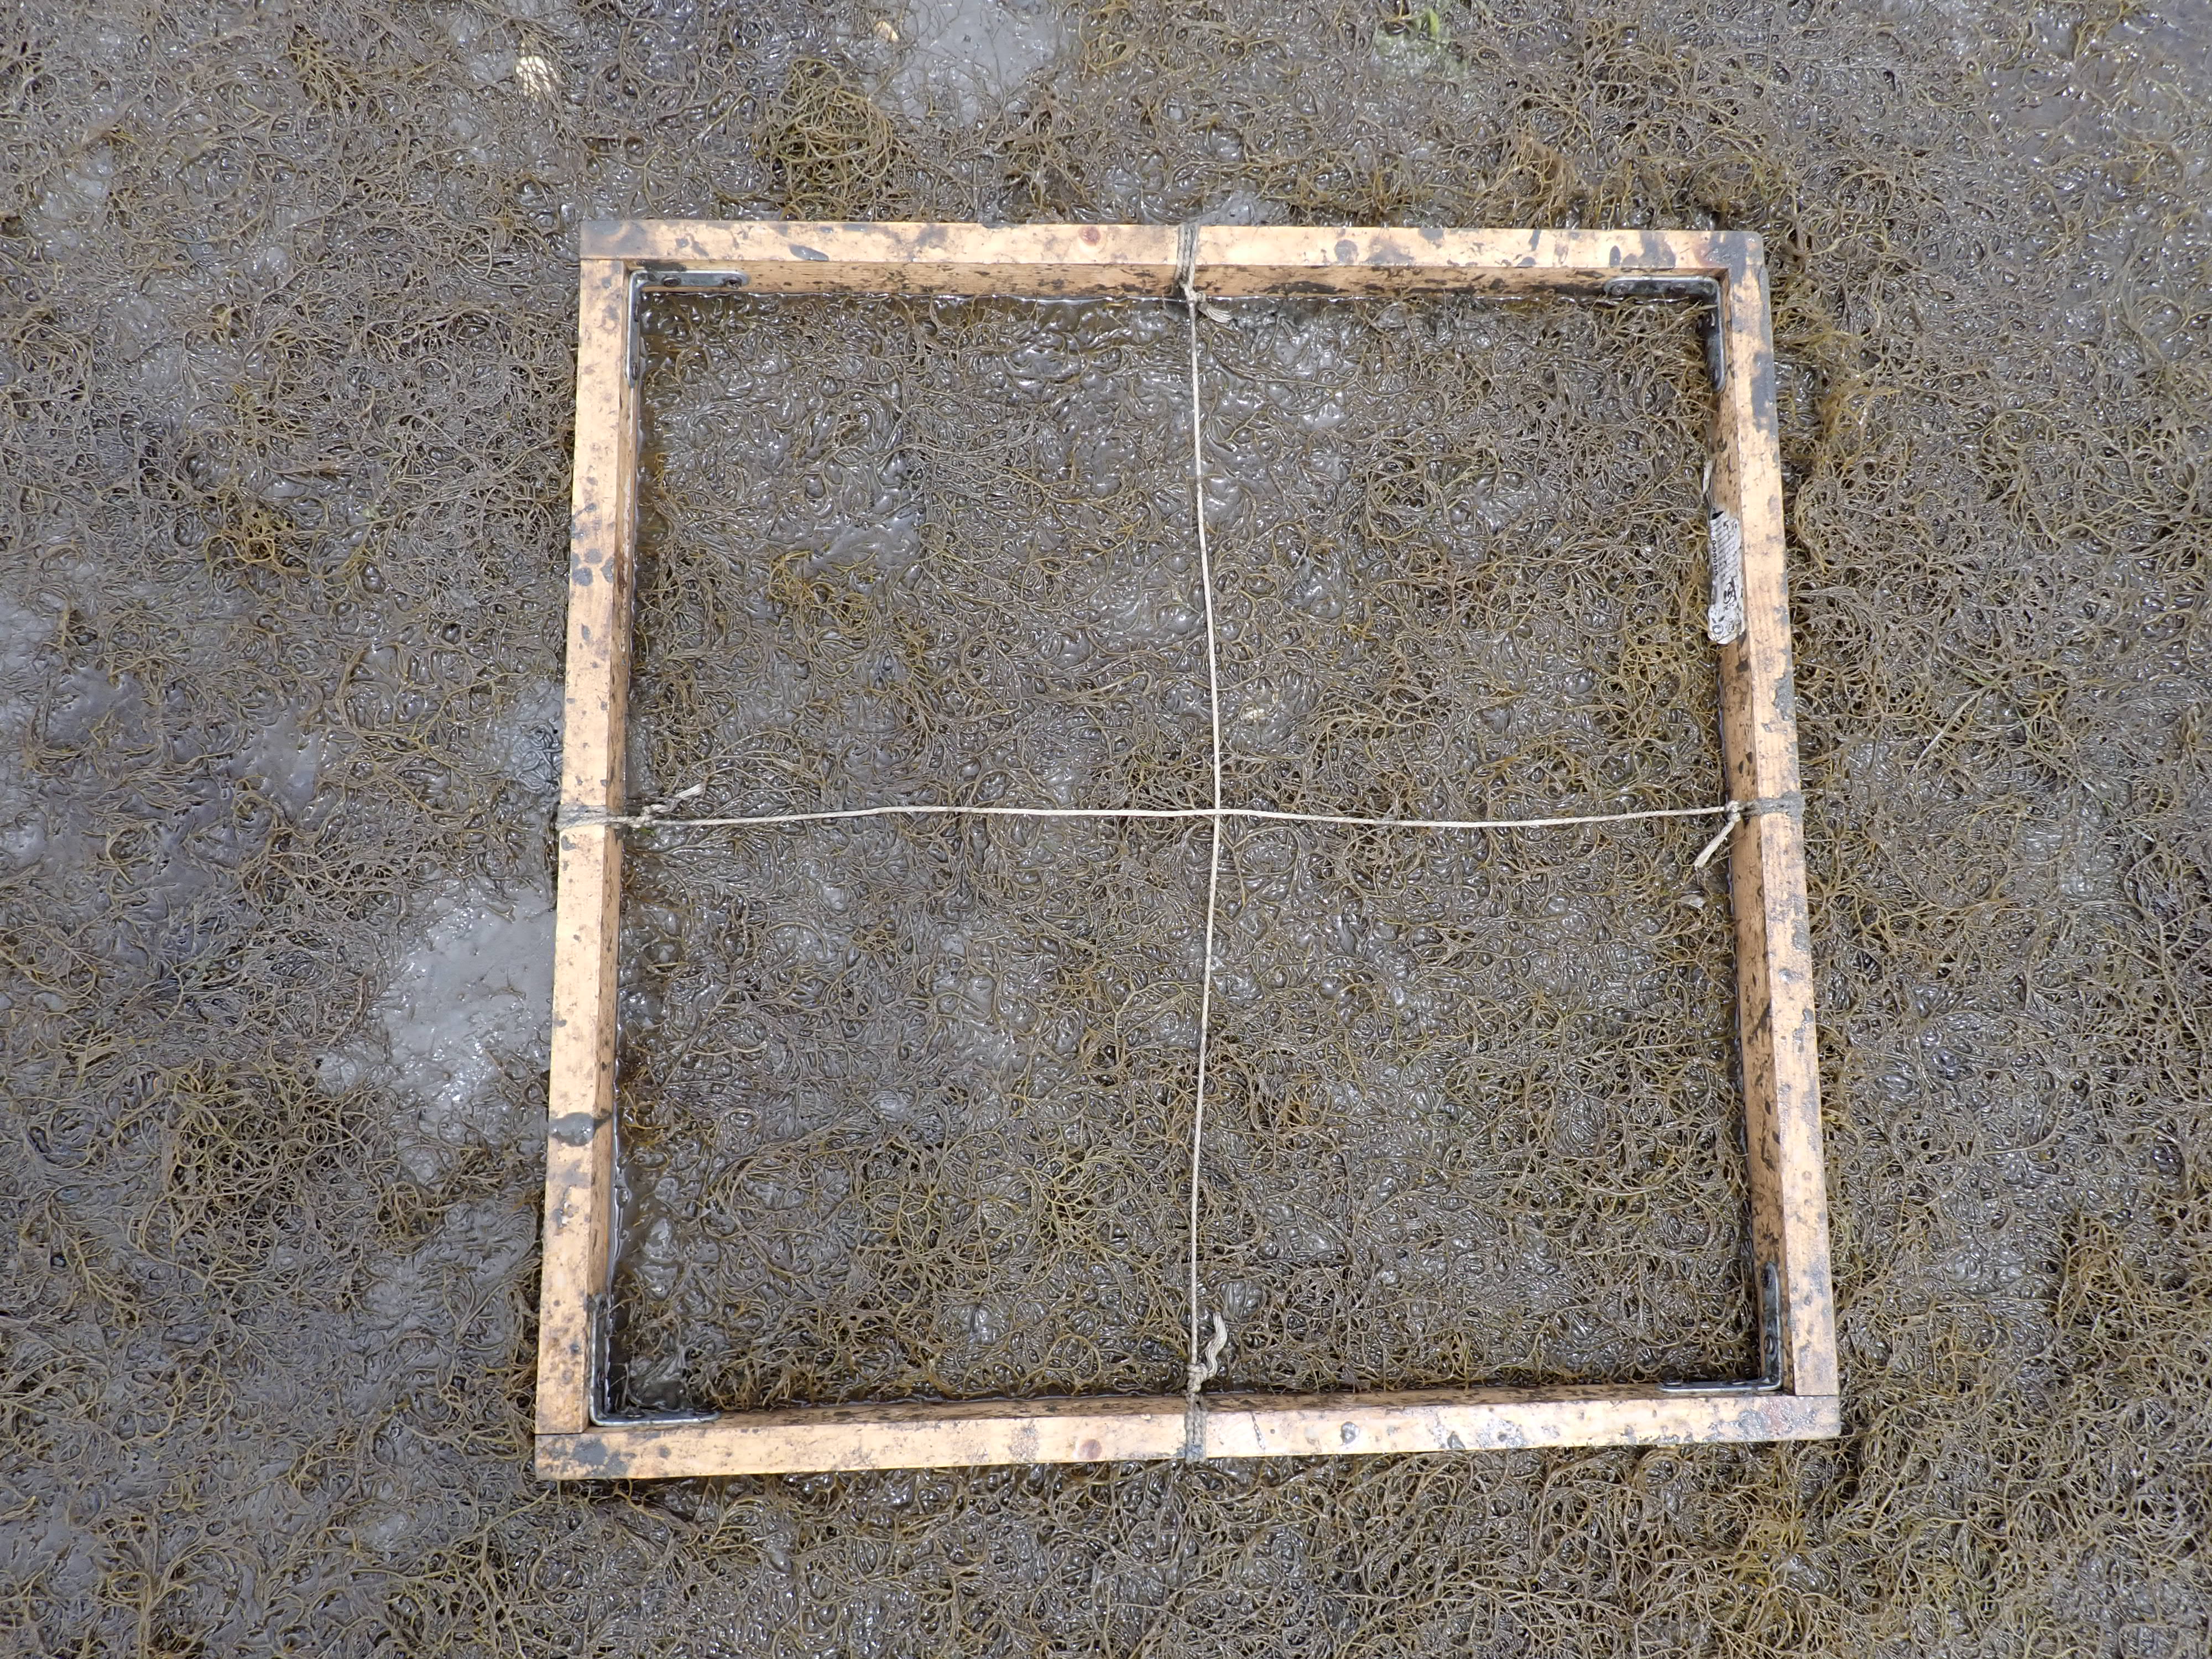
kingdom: Plantae
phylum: Rhodophyta
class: Florideophyceae
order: Gracilariales
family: Gracilariaceae
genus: Gracilaria
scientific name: Gracilaria vermiculophylla
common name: Algae
